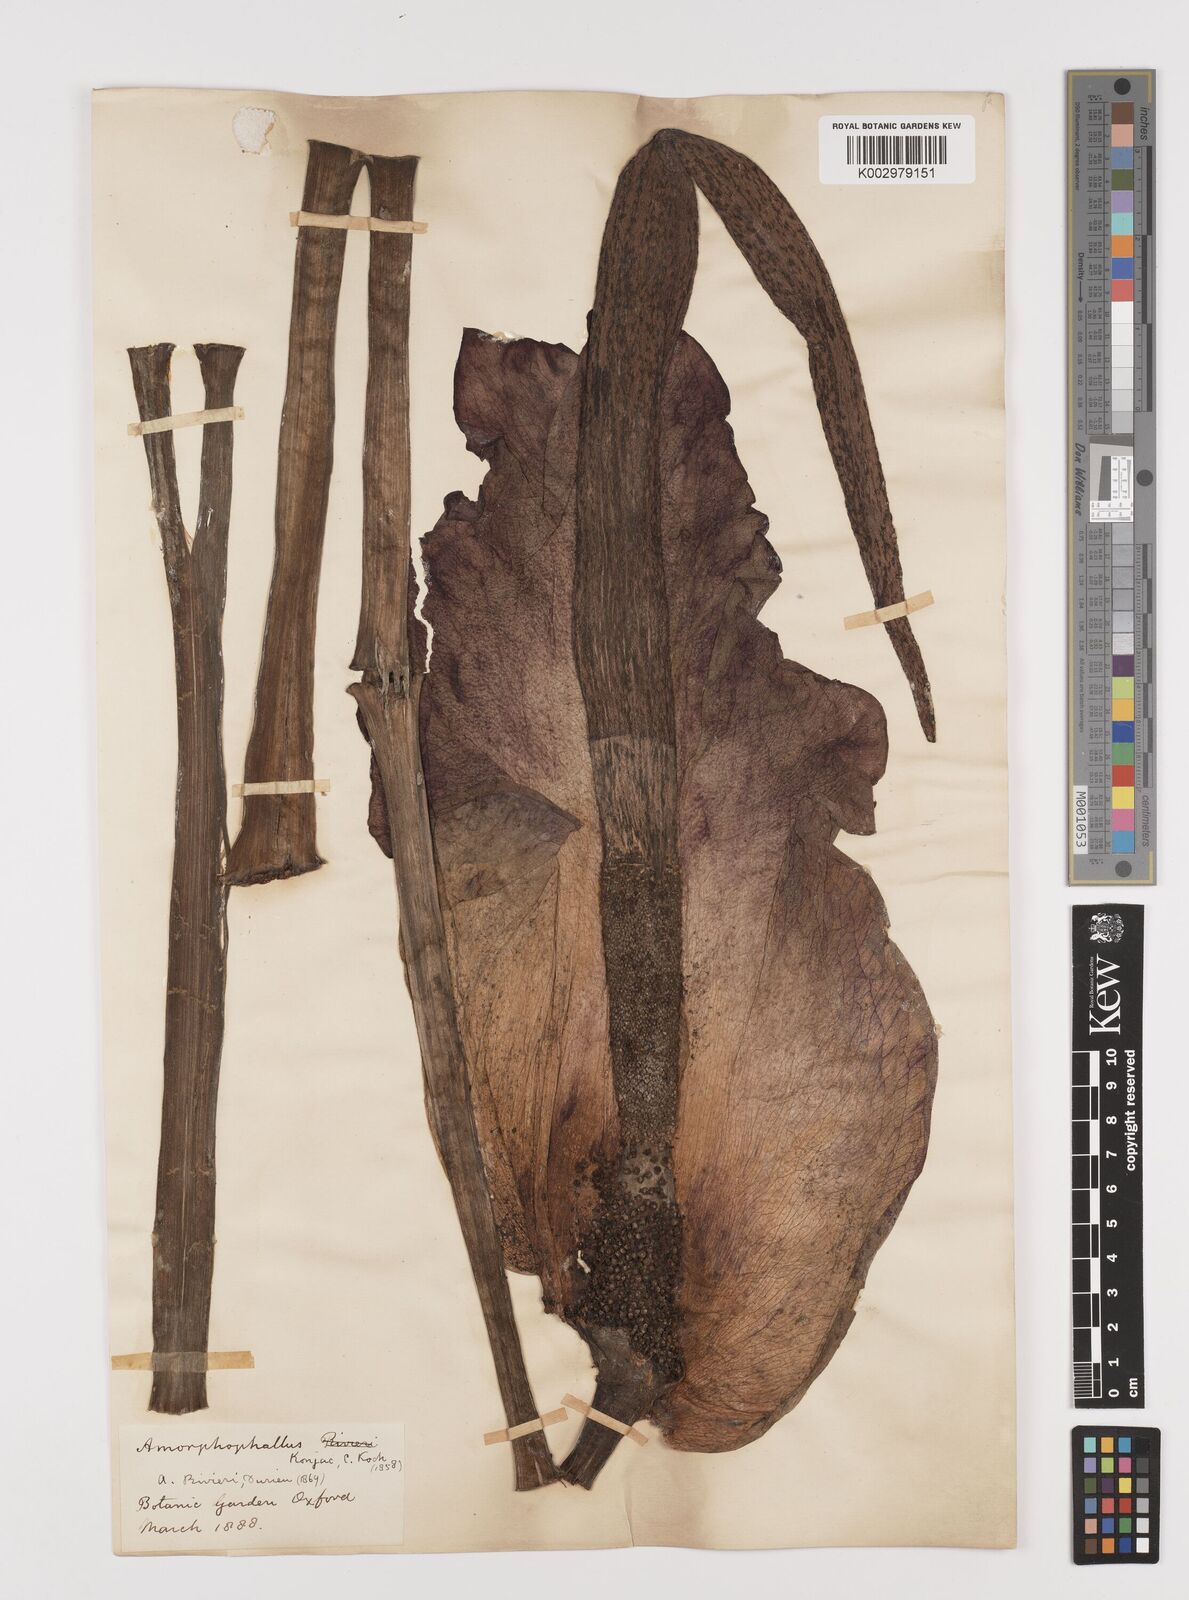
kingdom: Plantae
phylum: Tracheophyta
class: Liliopsida
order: Alismatales
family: Araceae
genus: Amorphophallus
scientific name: Amorphophallus konjac
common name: Umbrella arum
